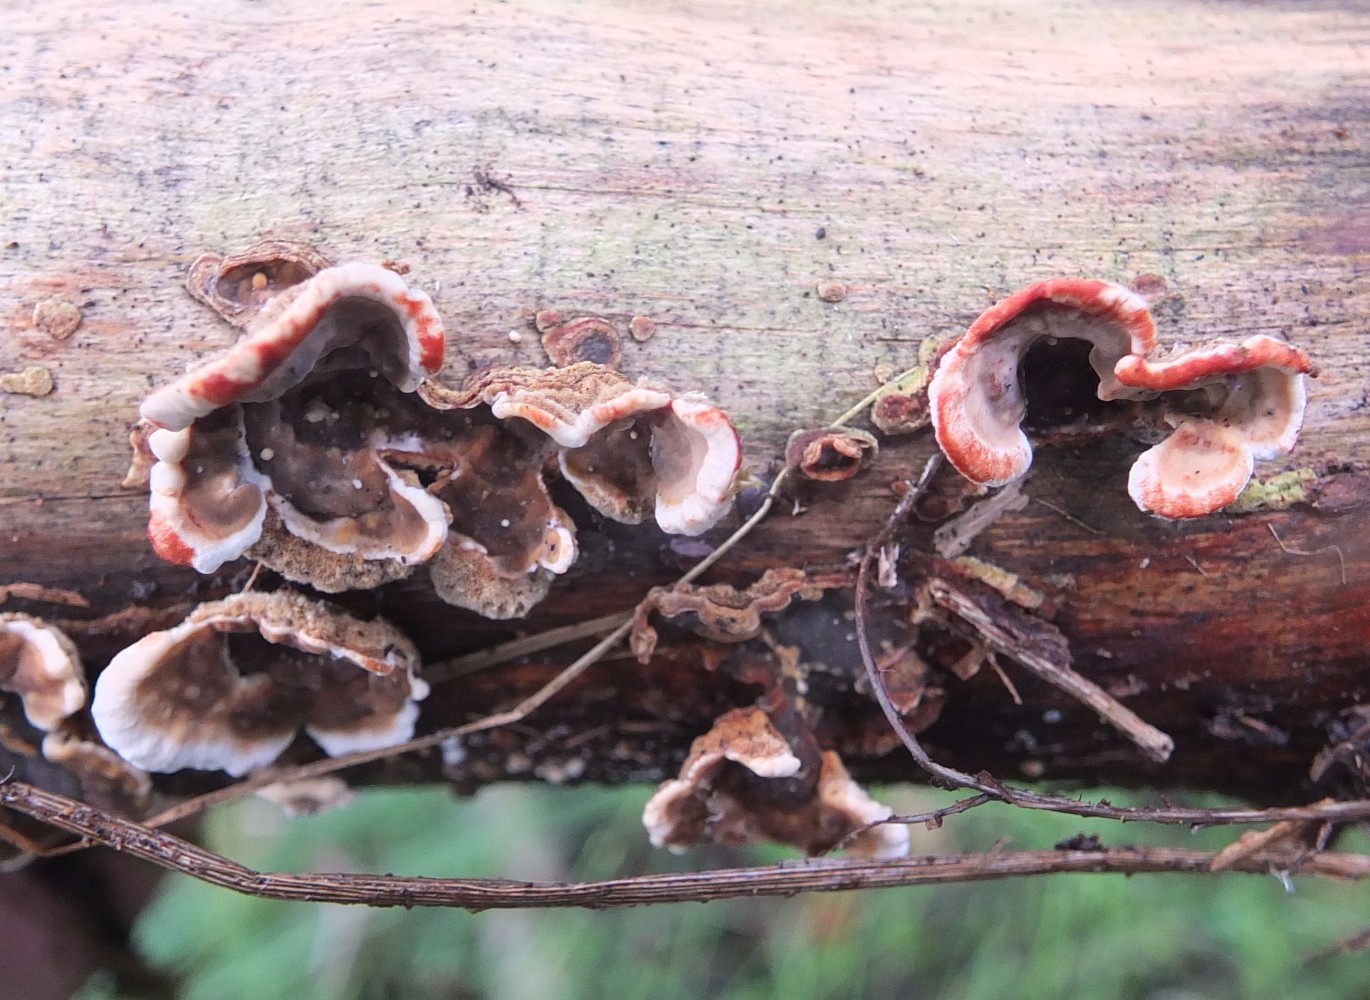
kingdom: Fungi
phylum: Basidiomycota
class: Agaricomycetes
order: Russulales
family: Stereaceae
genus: Stereum
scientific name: Stereum rugosum
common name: rynket lædersvamp
